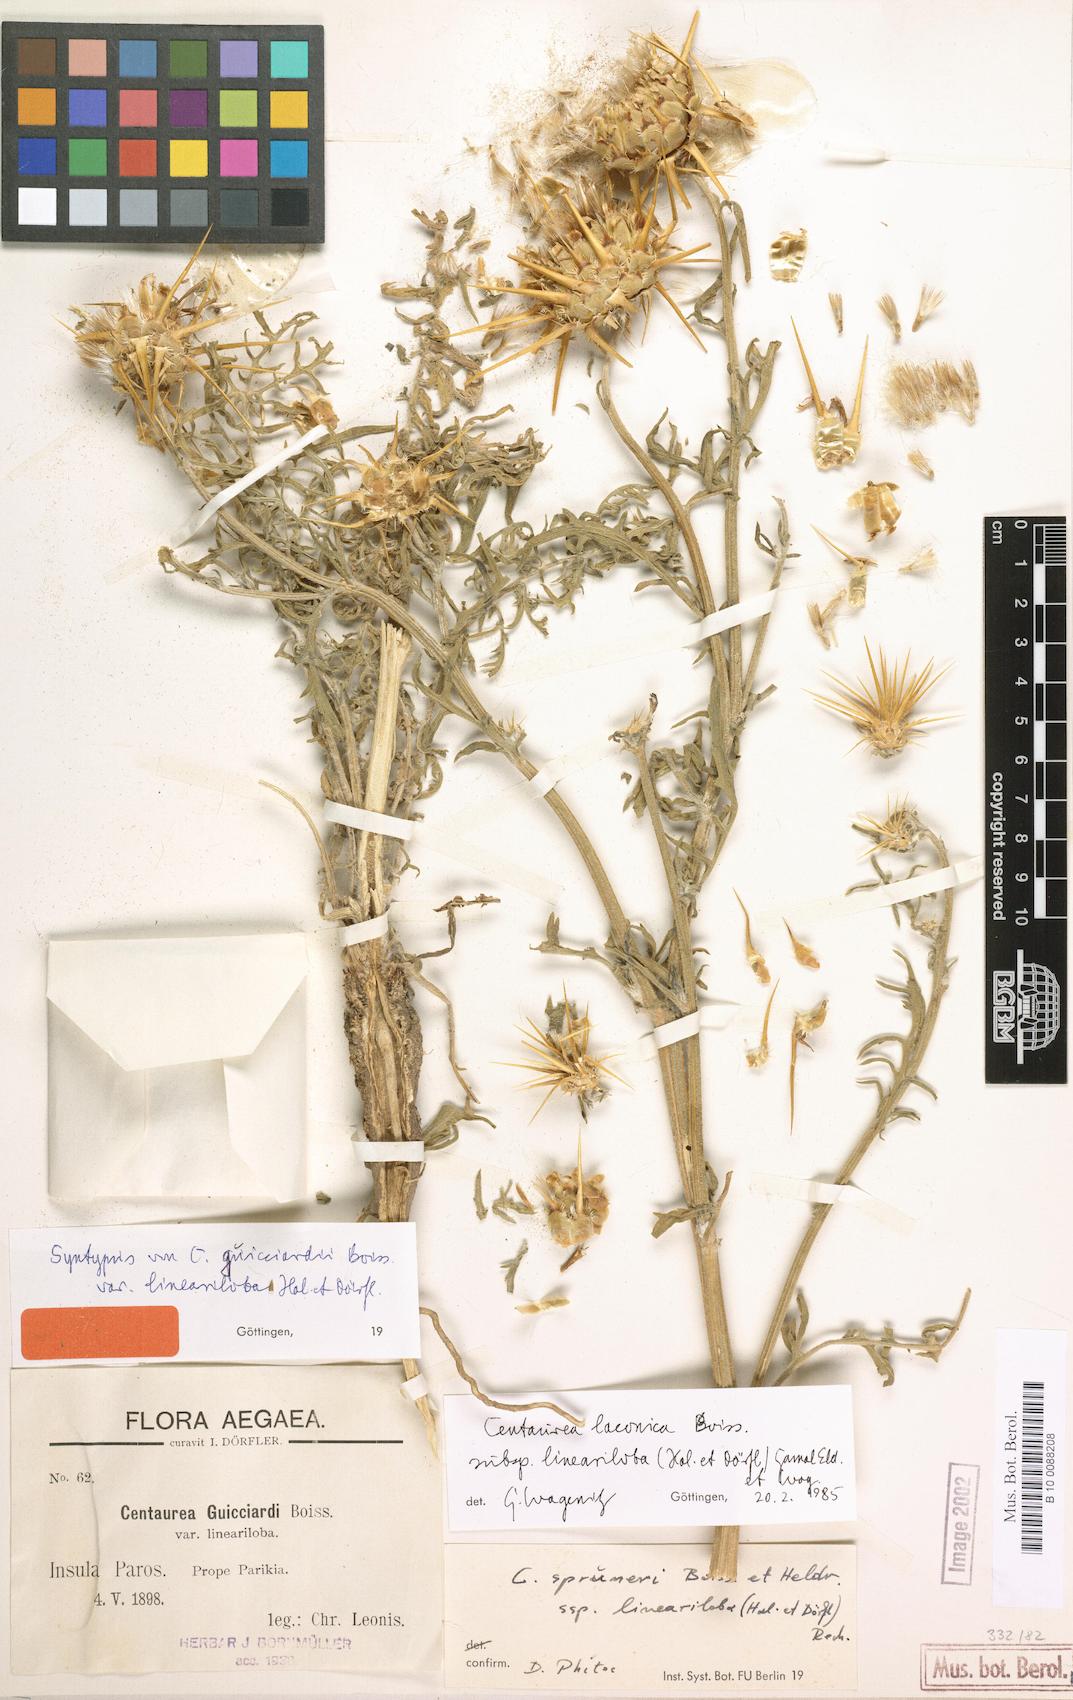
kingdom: Plantae
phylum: Tracheophyta
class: Magnoliopsida
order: Asterales
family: Asteraceae
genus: Centaurea
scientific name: Centaurea laconica
